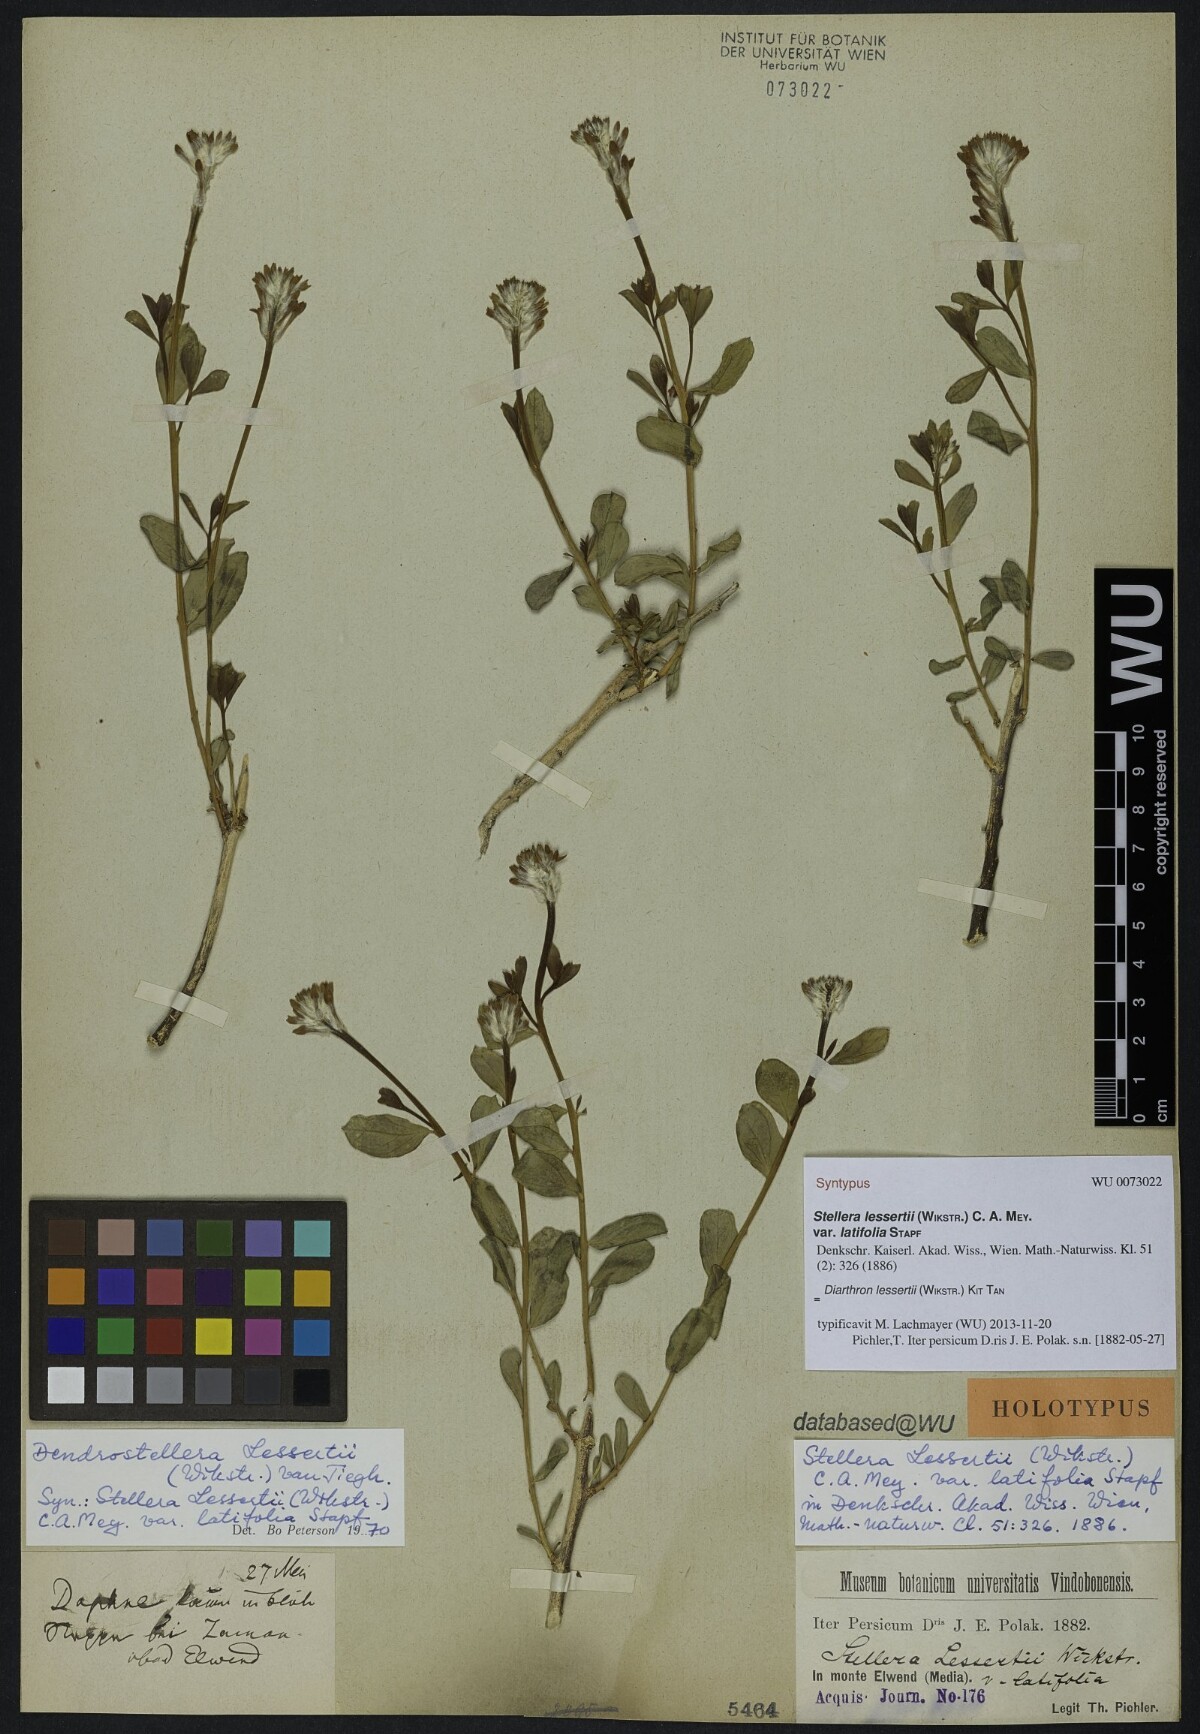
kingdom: Plantae
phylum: Tracheophyta
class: Magnoliopsida
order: Malvales
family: Thymelaeaceae
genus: Diarthron
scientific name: Diarthron lessertii
